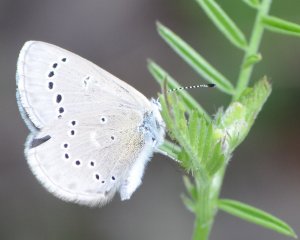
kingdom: Animalia
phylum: Arthropoda
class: Insecta
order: Lepidoptera
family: Lycaenidae
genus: Glaucopsyche
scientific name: Glaucopsyche lygdamus
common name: Silvery Blue
